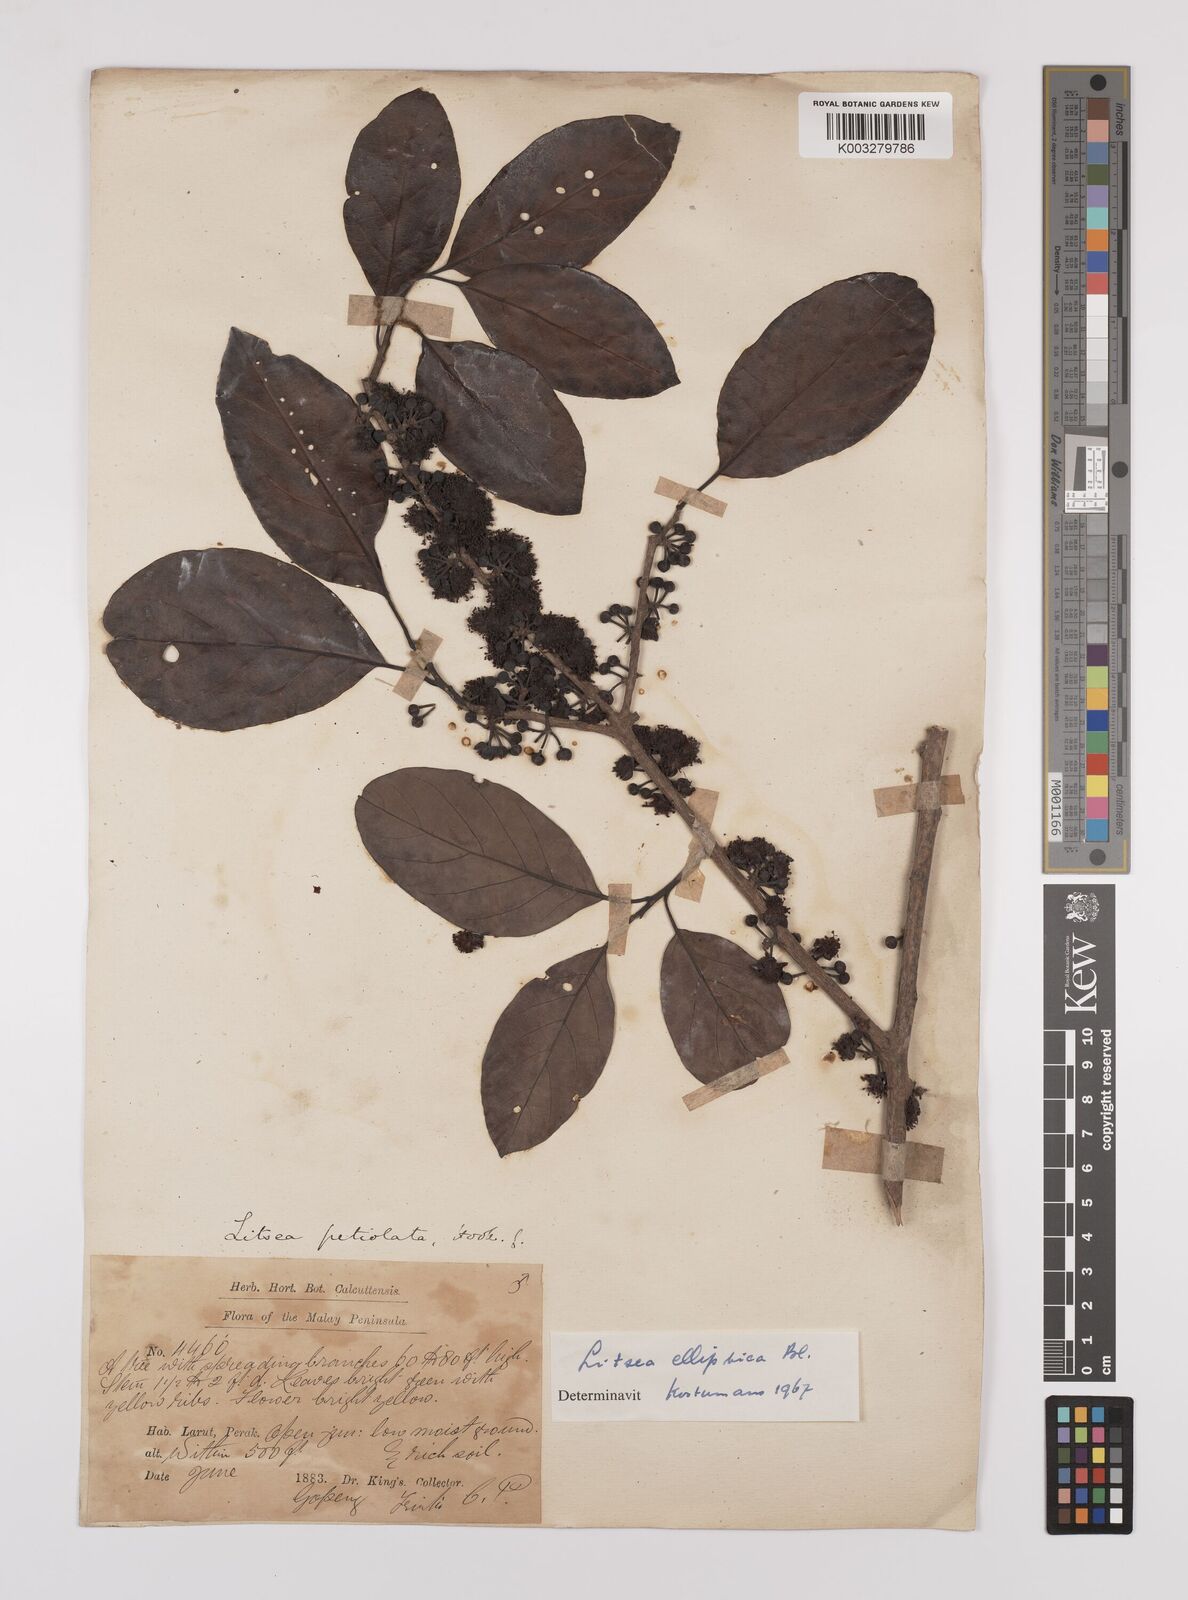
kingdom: Plantae
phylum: Tracheophyta
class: Magnoliopsida
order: Laurales
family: Lauraceae
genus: Litsea
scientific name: Litsea elliptica
